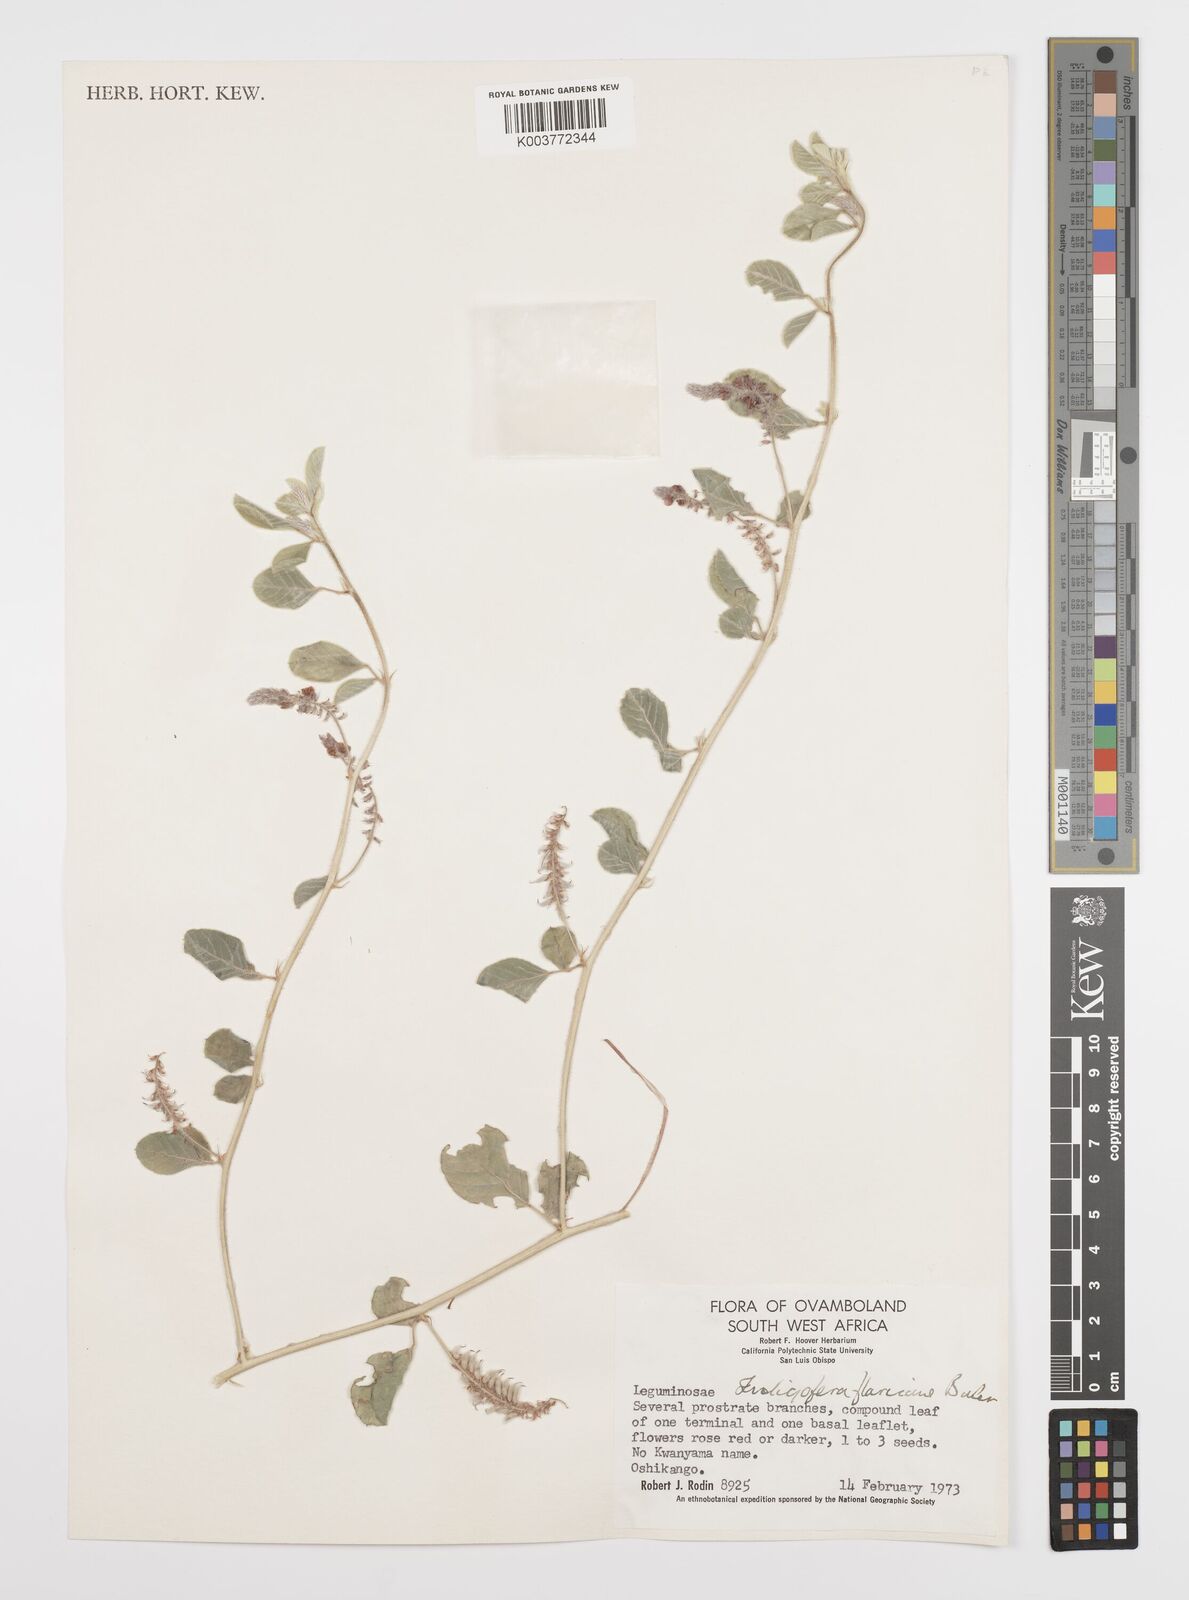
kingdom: Plantae
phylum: Tracheophyta
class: Magnoliopsida
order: Fabales
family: Fabaceae
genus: Indigofera
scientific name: Indigofera flavicans
